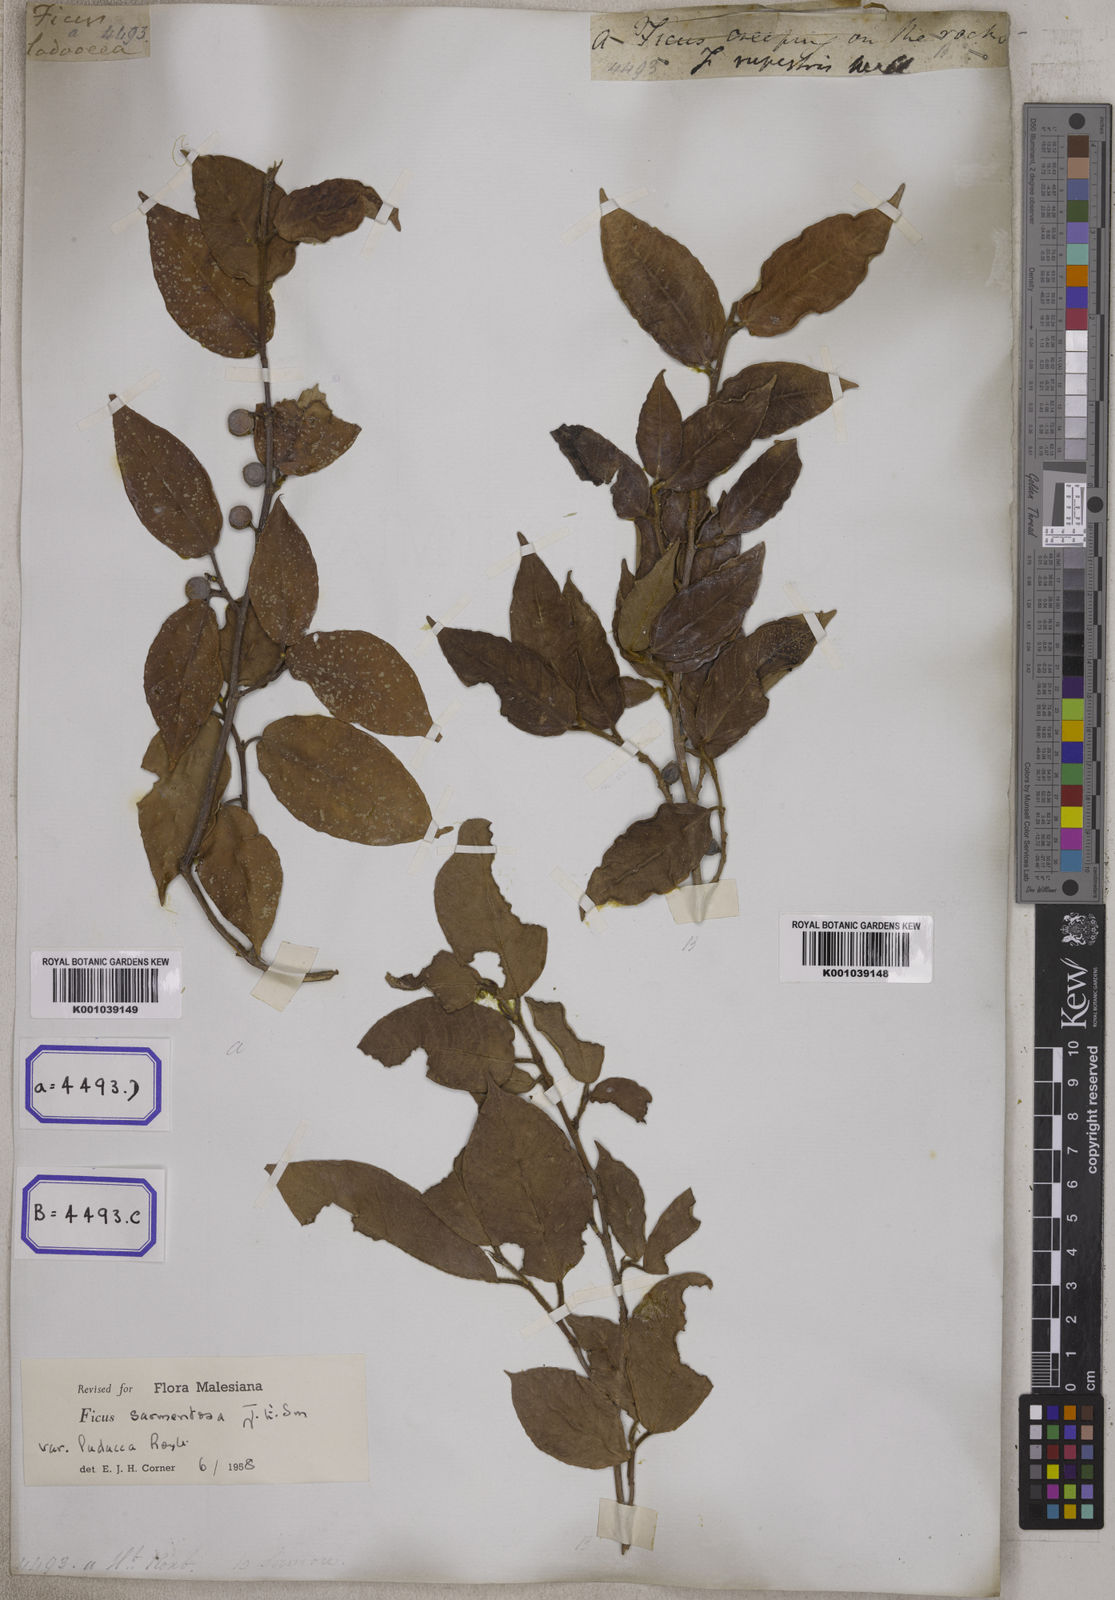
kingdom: Plantae
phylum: Tracheophyta
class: Magnoliopsida
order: Rosales
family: Moraceae
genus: Ficus
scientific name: Ficus
